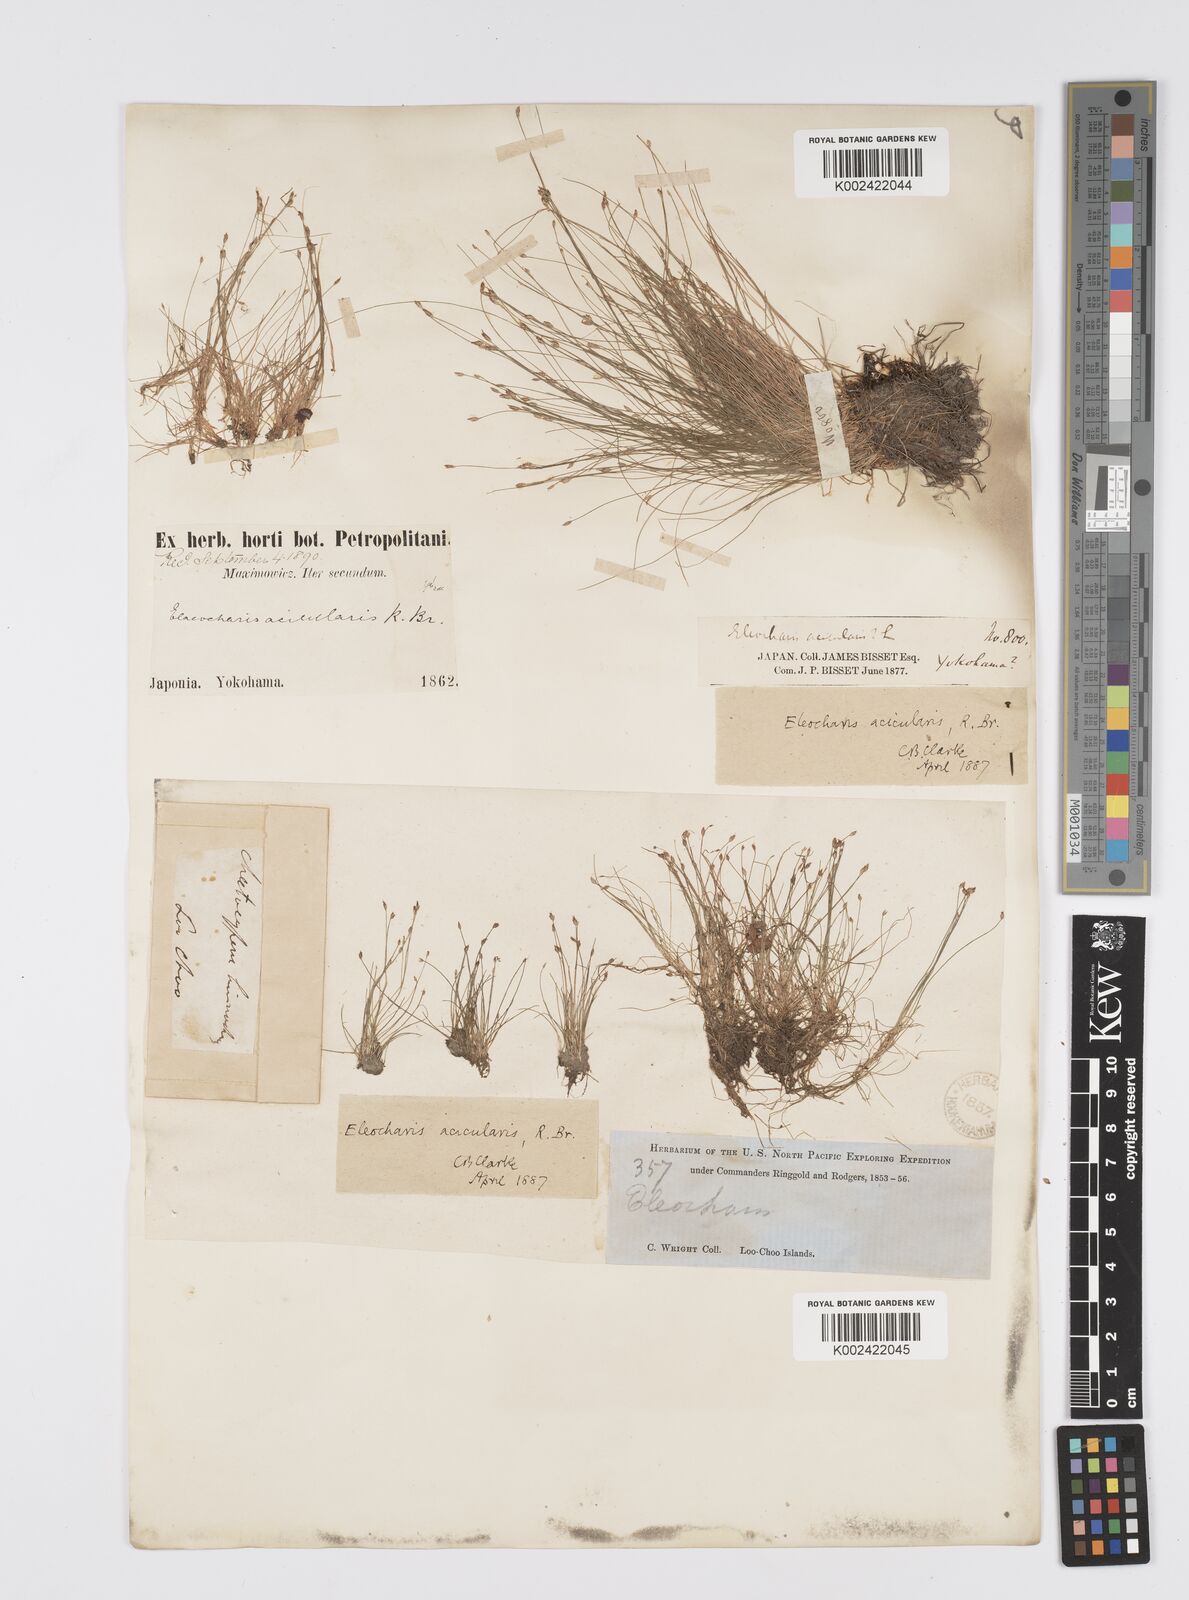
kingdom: Plantae
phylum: Tracheophyta
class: Liliopsida
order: Poales
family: Cyperaceae
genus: Eleocharis
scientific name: Eleocharis acicularis
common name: Needle spike-rush
